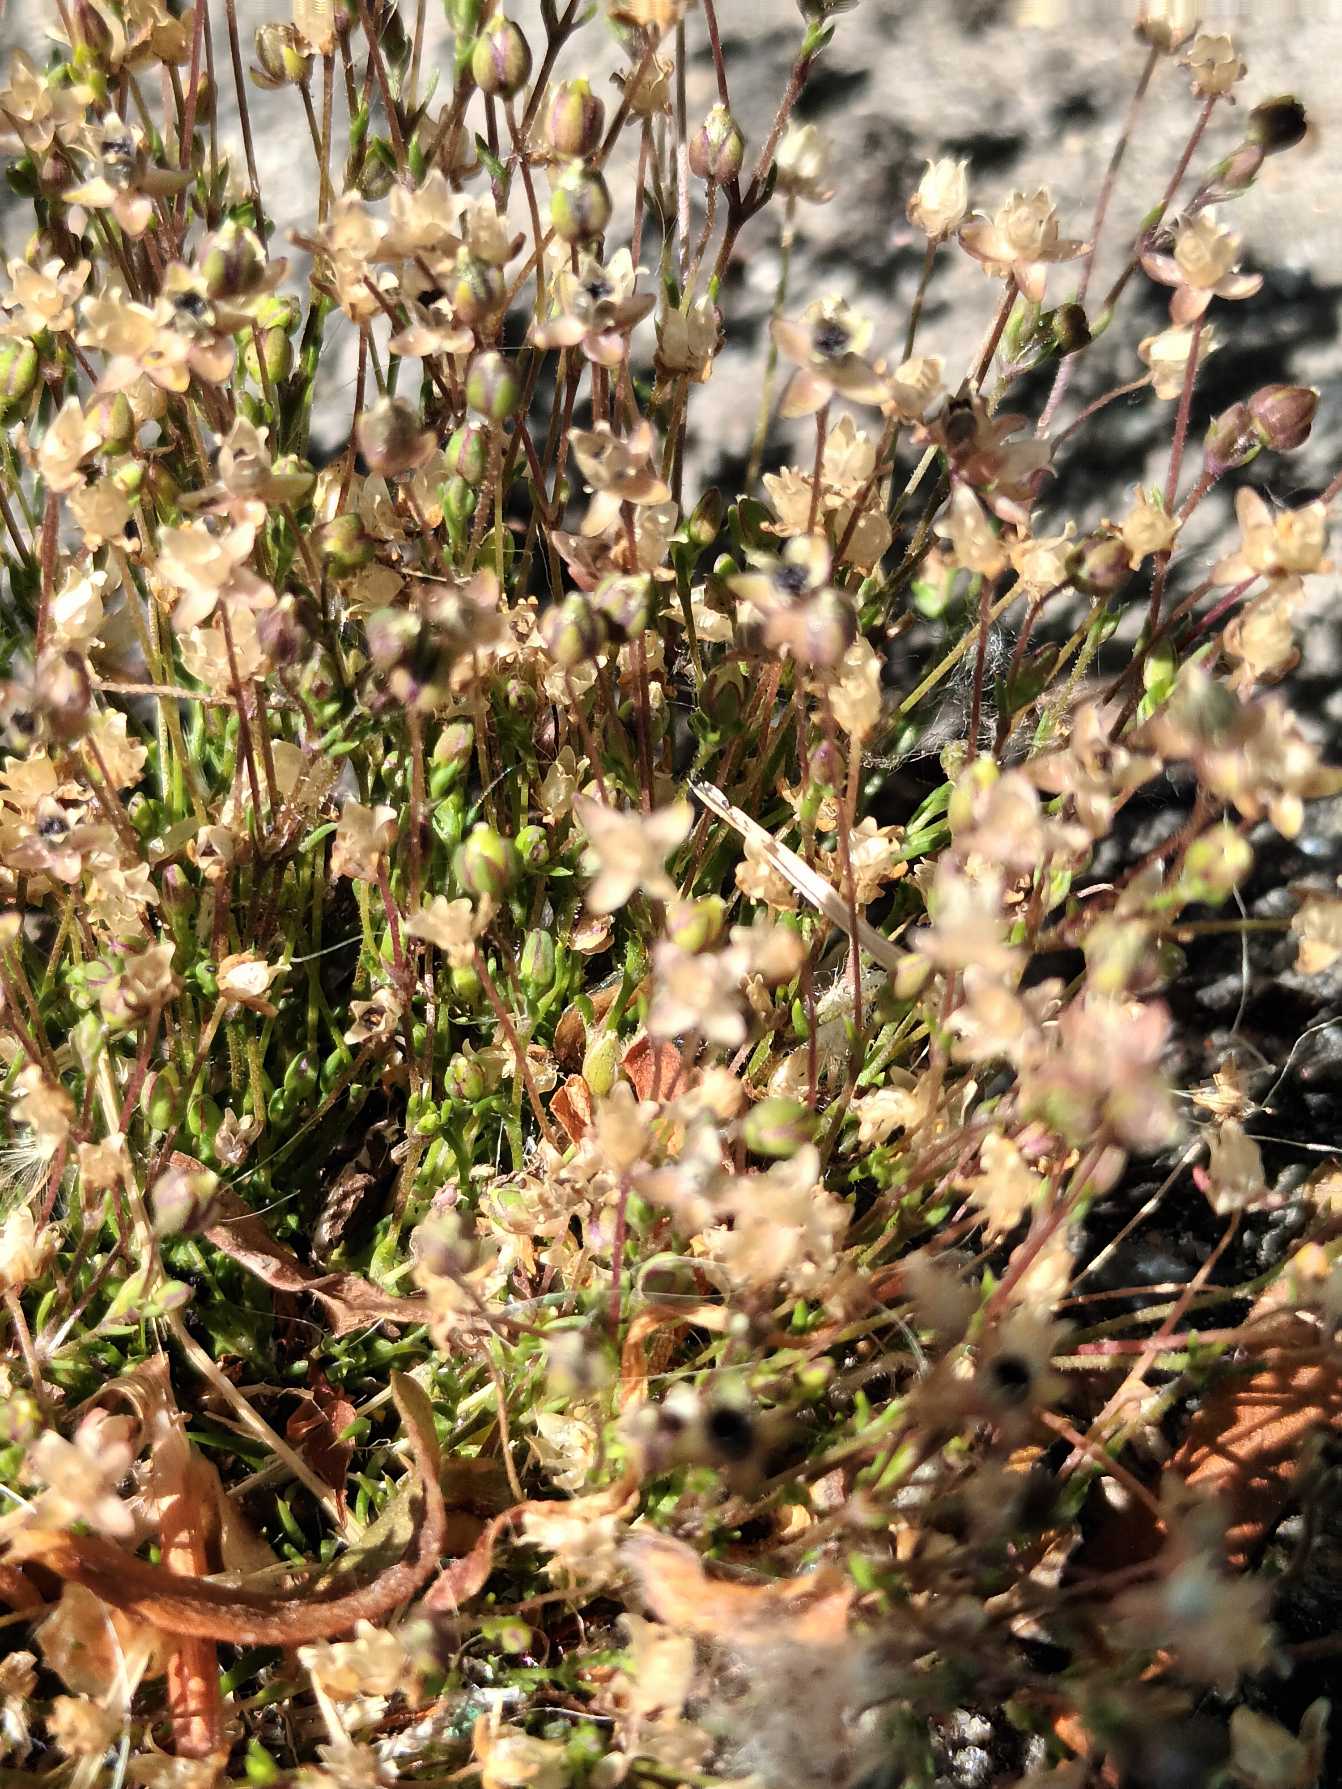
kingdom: Plantae
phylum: Tracheophyta
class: Magnoliopsida
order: Caryophyllales
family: Caryophyllaceae
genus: Sagina
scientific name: Sagina micropetala
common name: Håret firling
